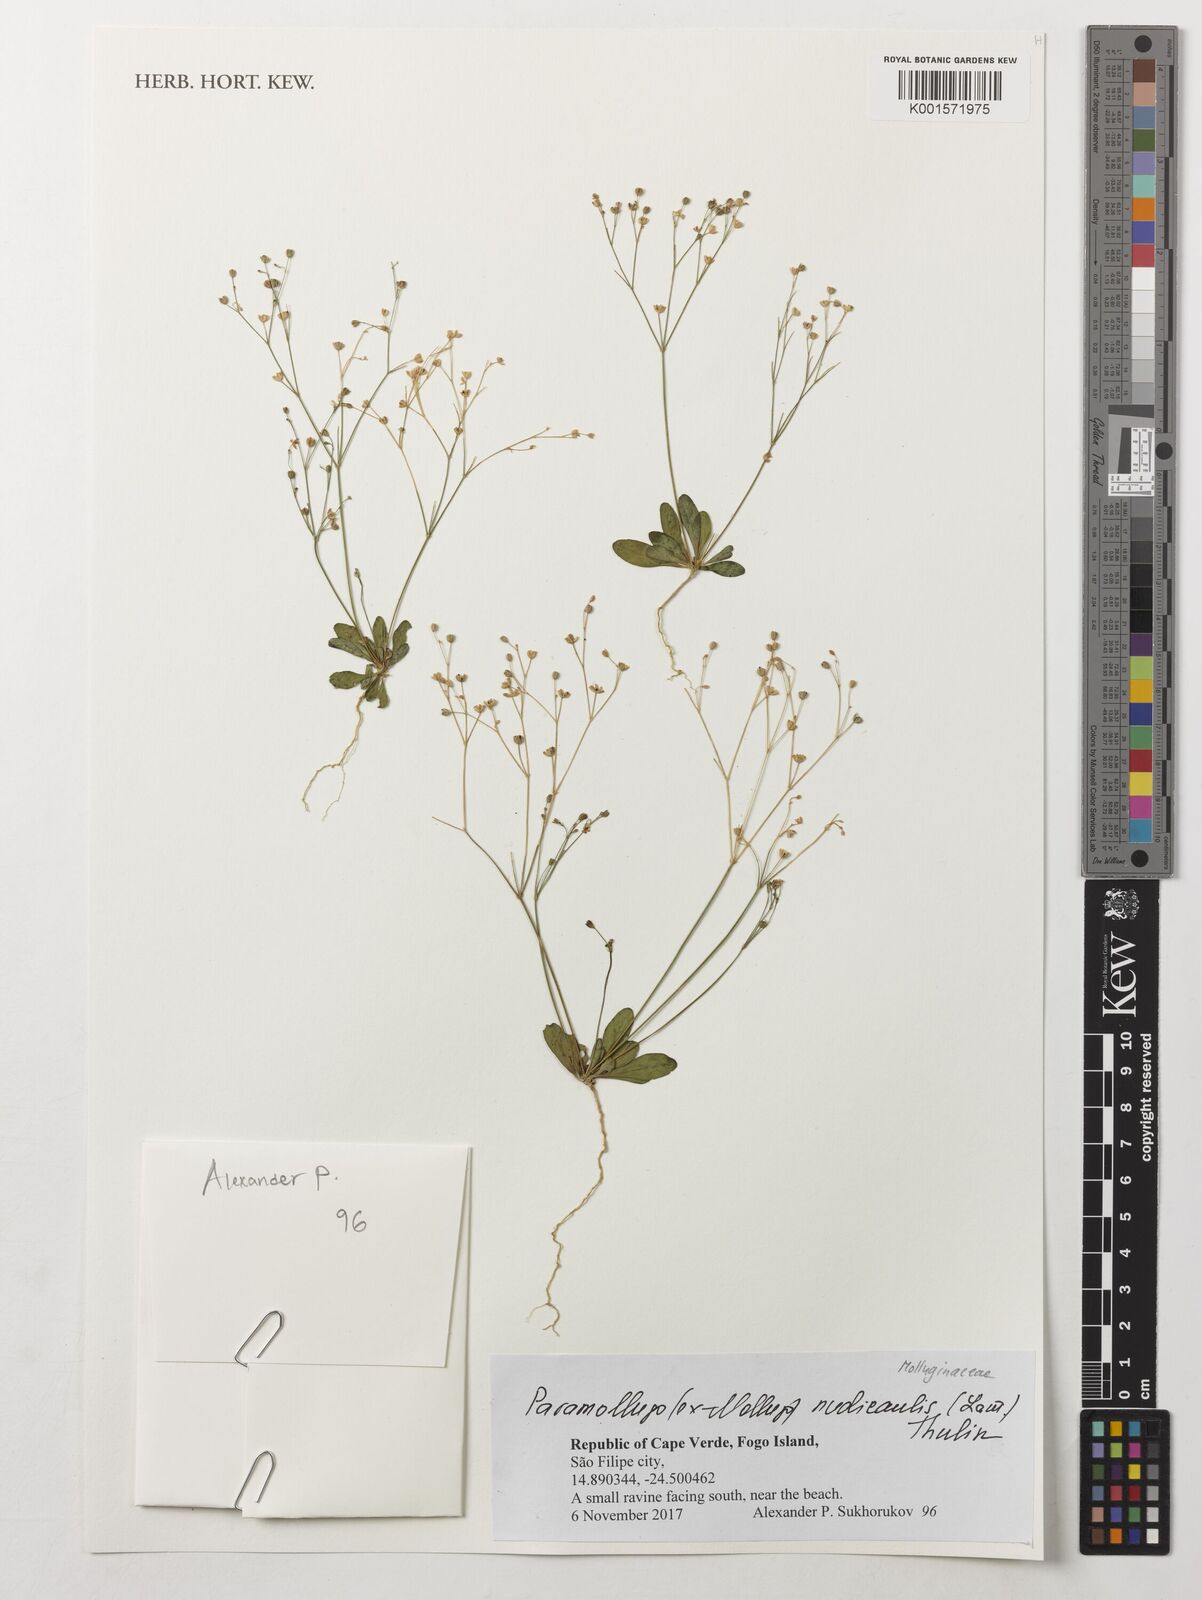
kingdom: Plantae
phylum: Tracheophyta
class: Magnoliopsida
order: Caryophyllales
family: Molluginaceae
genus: Paramollugo
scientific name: Paramollugo nudicaulis
